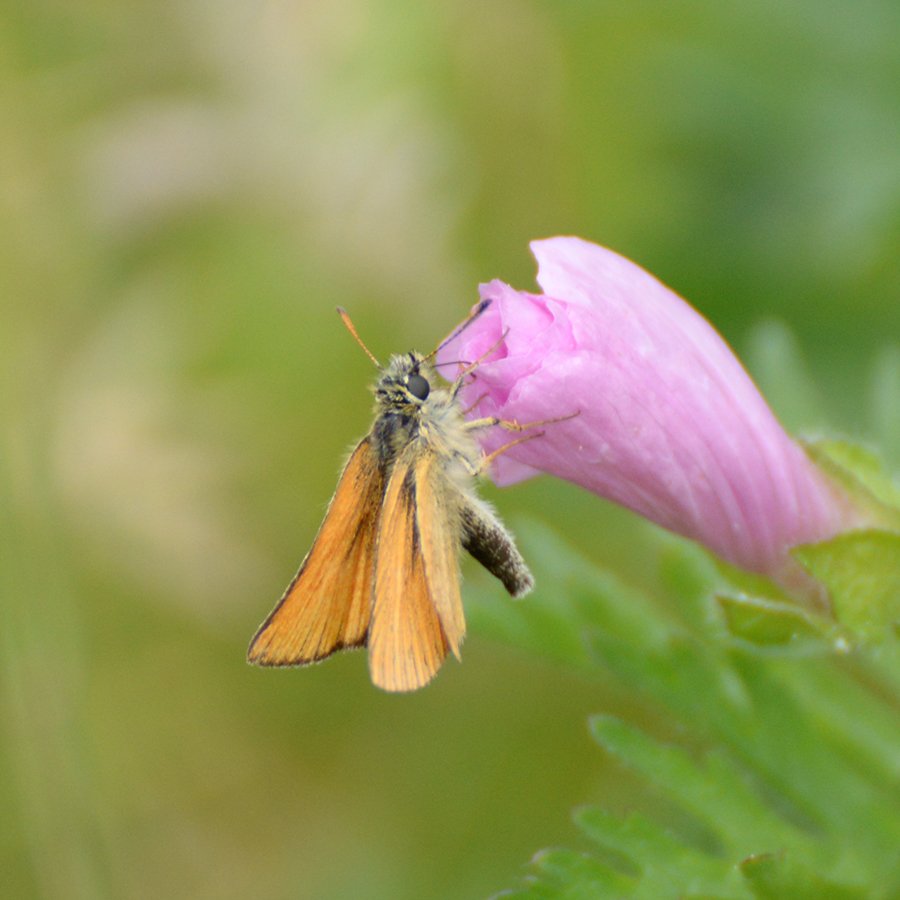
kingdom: Animalia
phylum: Arthropoda
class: Insecta
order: Lepidoptera
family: Hesperiidae
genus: Thymelicus
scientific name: Thymelicus lineola
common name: European Skipper
